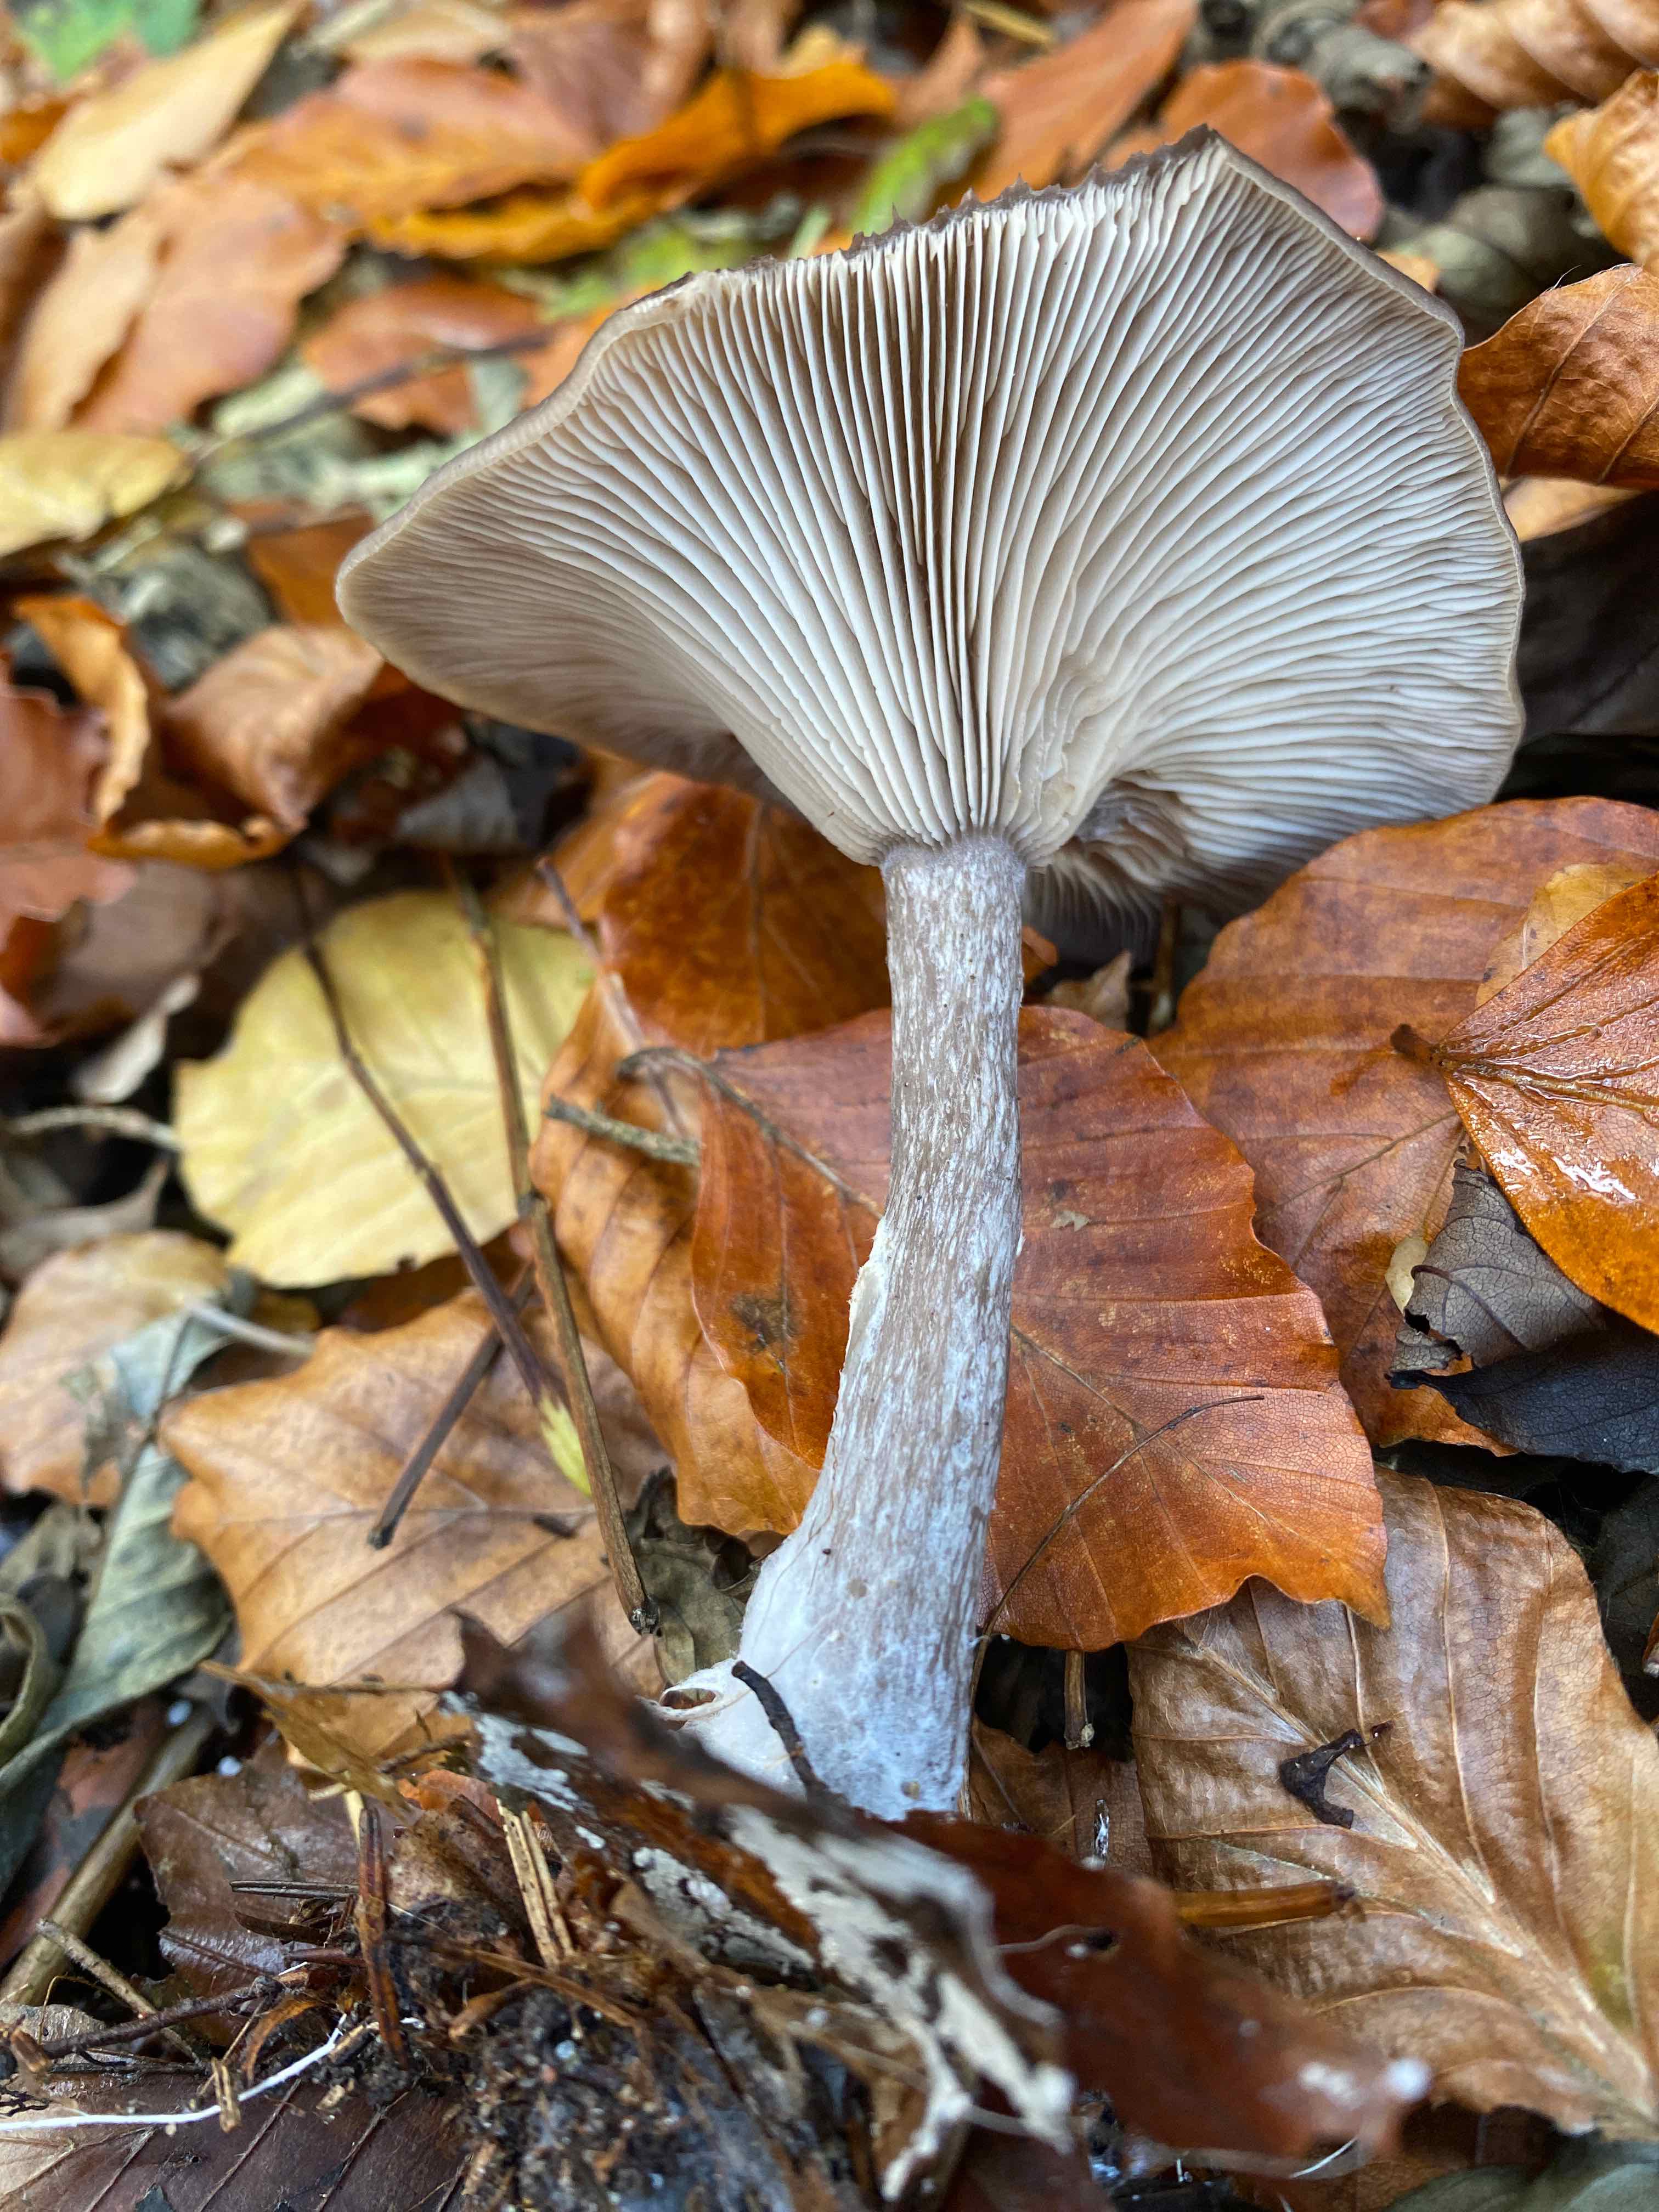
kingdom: Fungi
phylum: Basidiomycota
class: Agaricomycetes
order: Agaricales
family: Pseudoclitocybaceae
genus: Pseudoclitocybe
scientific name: Pseudoclitocybe cyathiformis
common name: almindelig bægertragthat
